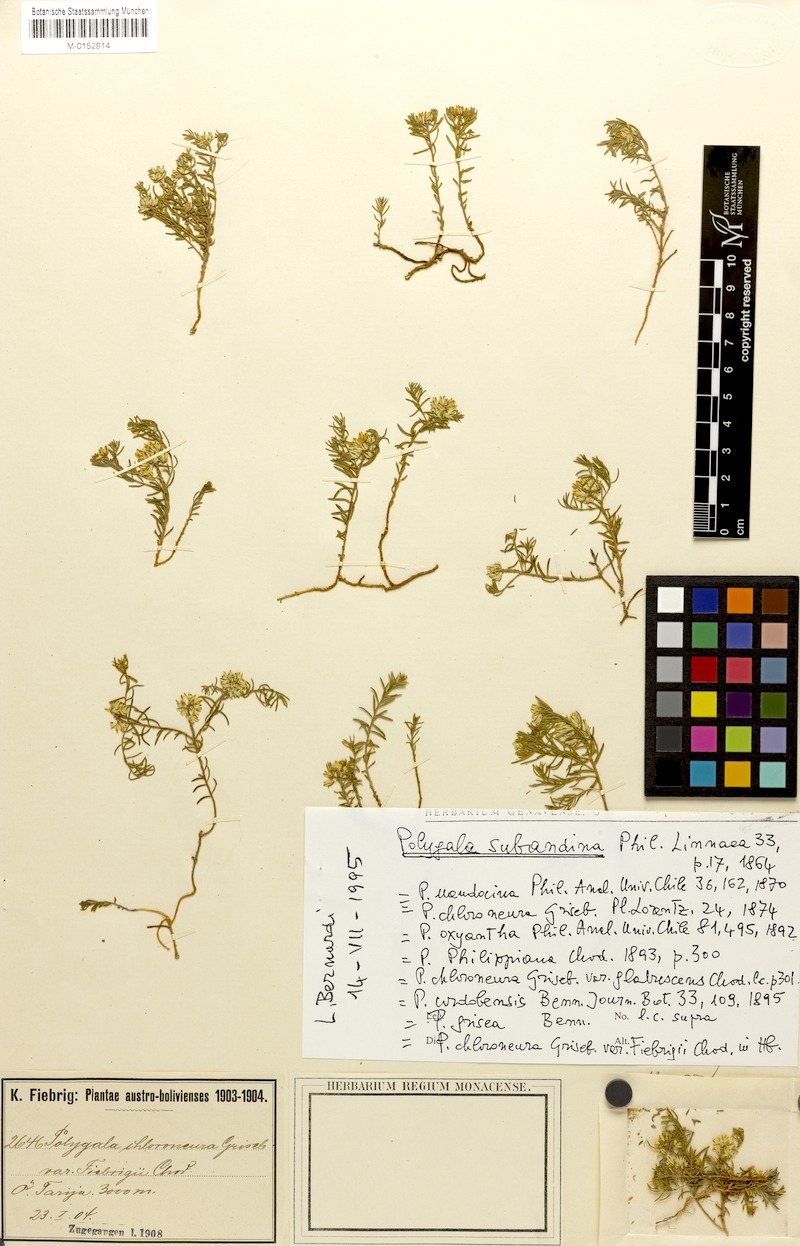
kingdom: Plantae
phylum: Tracheophyta
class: Magnoliopsida
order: Fabales
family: Polygalaceae
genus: Polygala
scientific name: Polygala subandina
